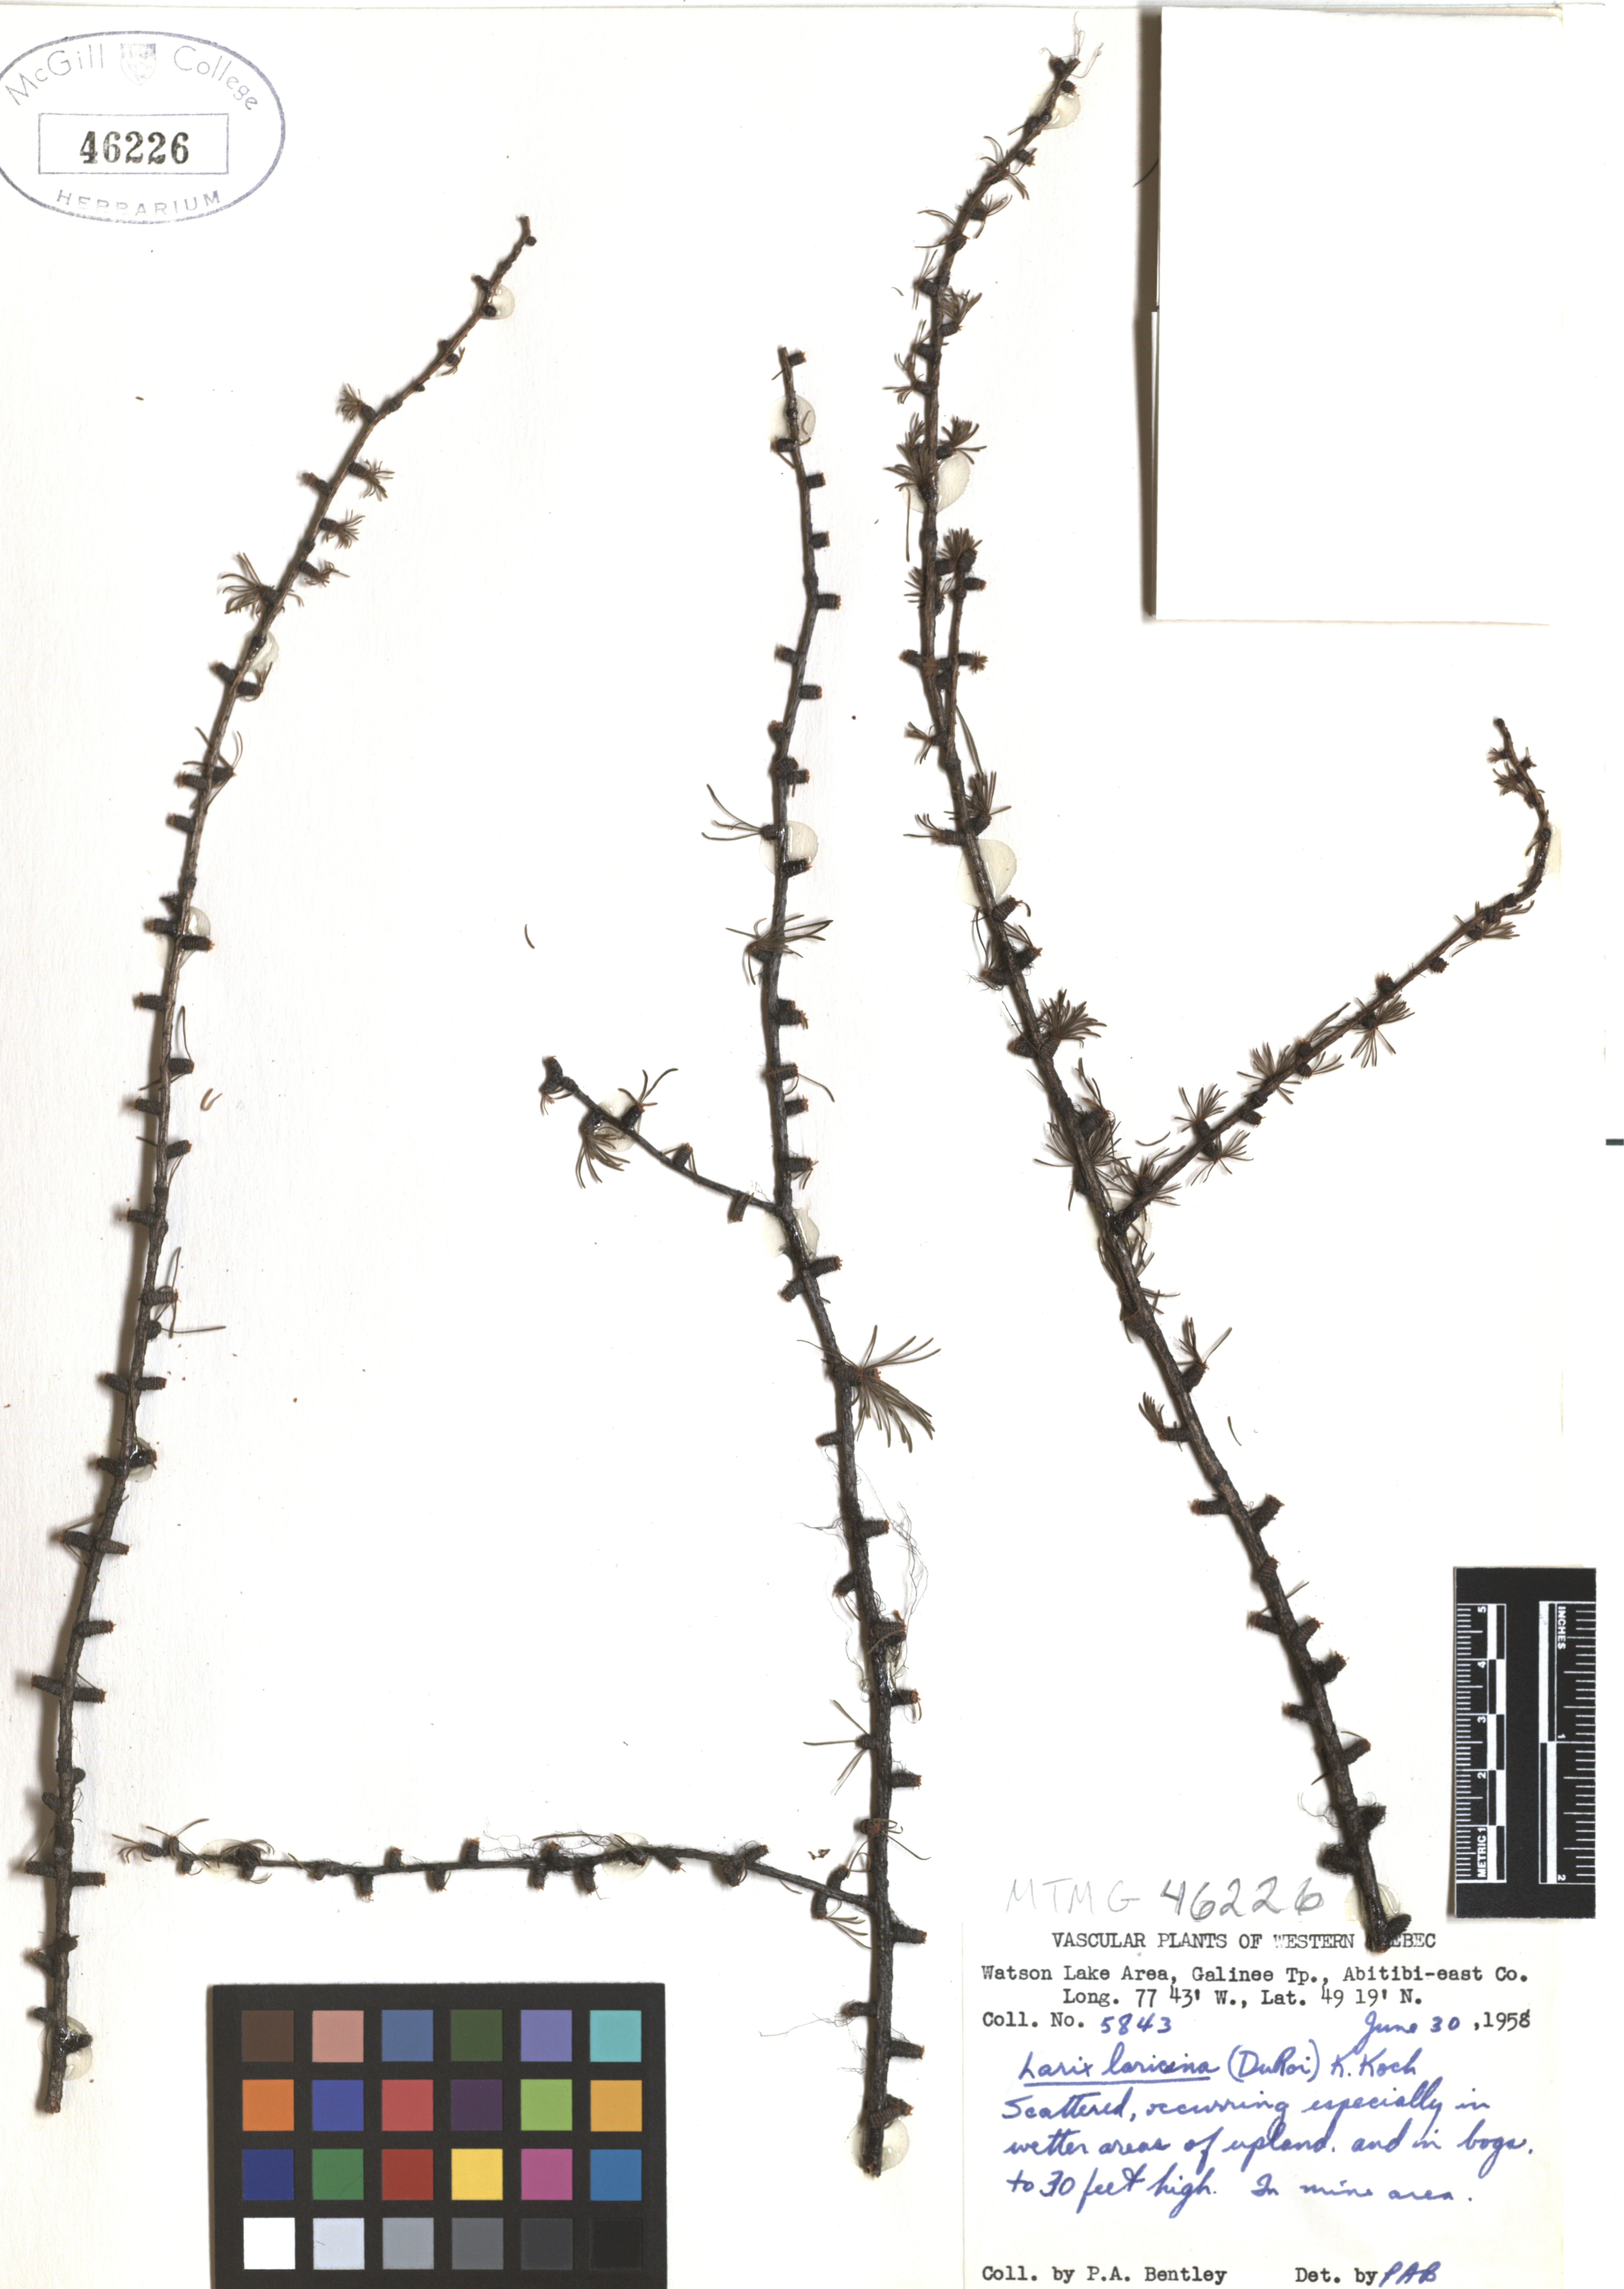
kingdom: Plantae
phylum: Tracheophyta
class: Pinopsida
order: Pinales
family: Pinaceae
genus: Larix
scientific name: Larix laricina
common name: American larch
